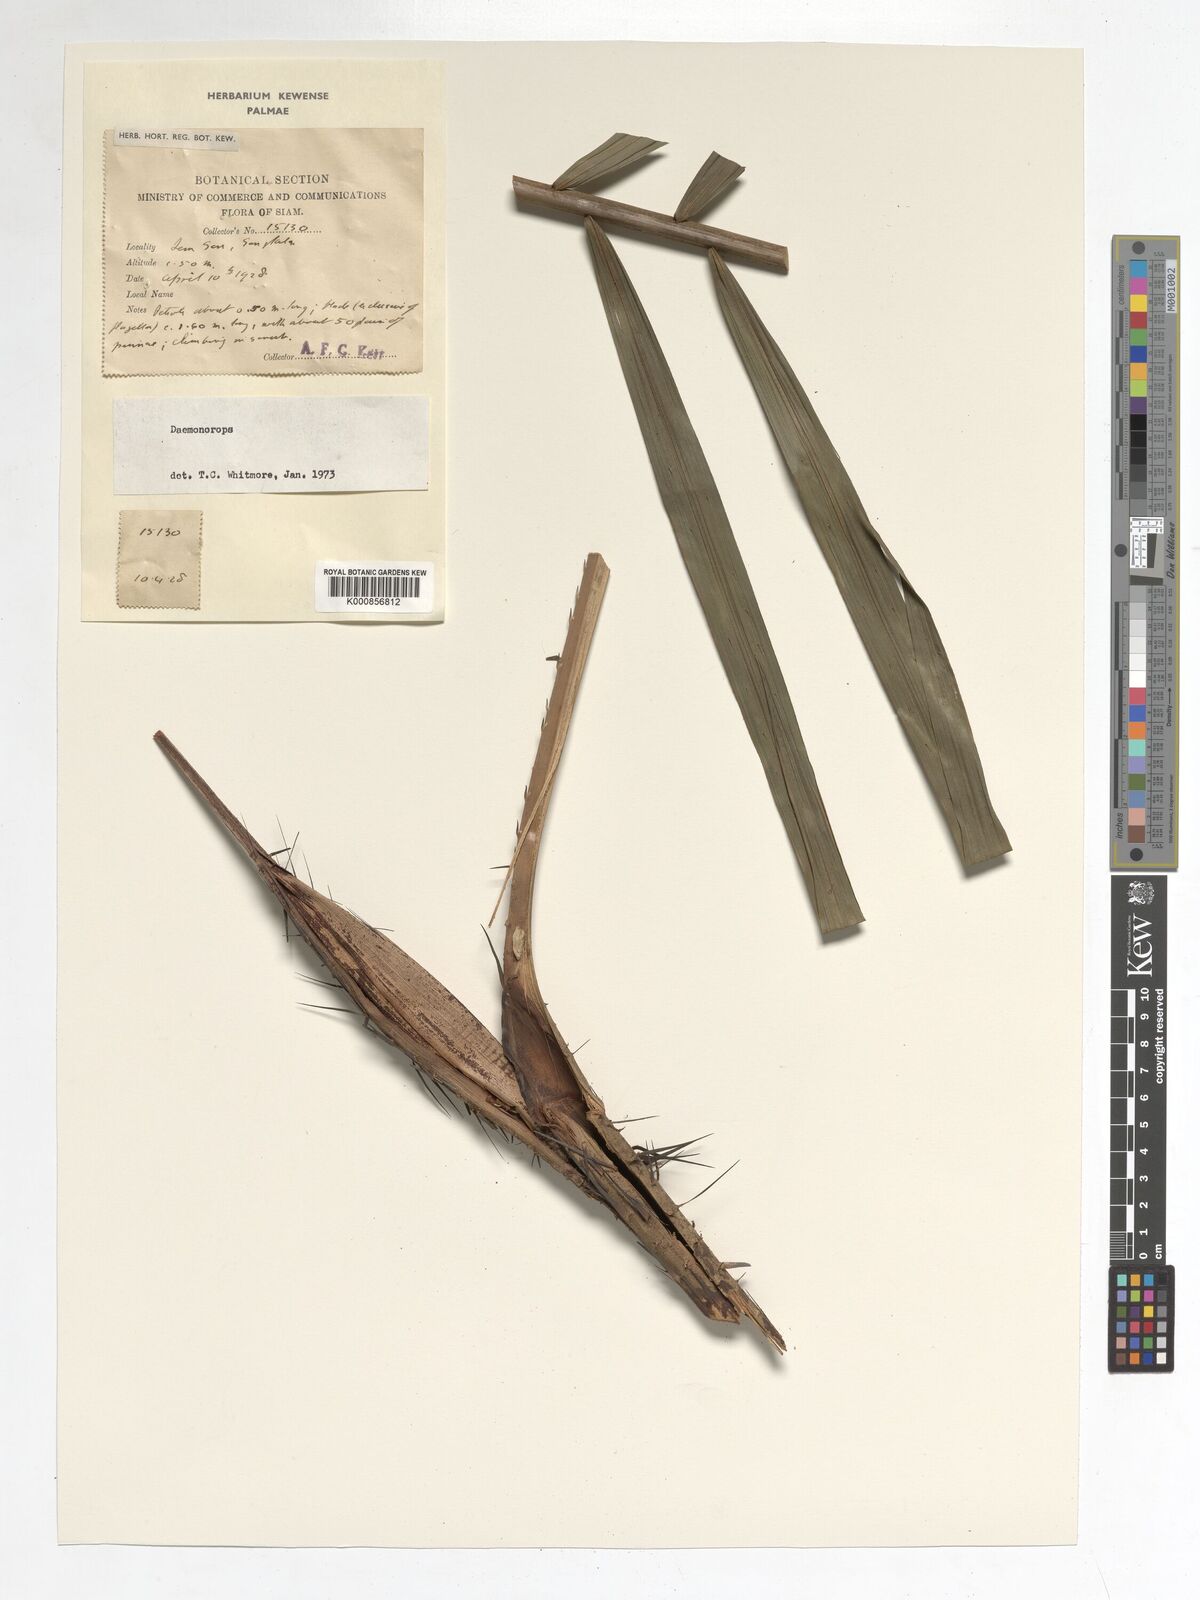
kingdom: Plantae
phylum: Tracheophyta
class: Liliopsida
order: Arecales
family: Arecaceae
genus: Daemonorops
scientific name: Daemonorops
